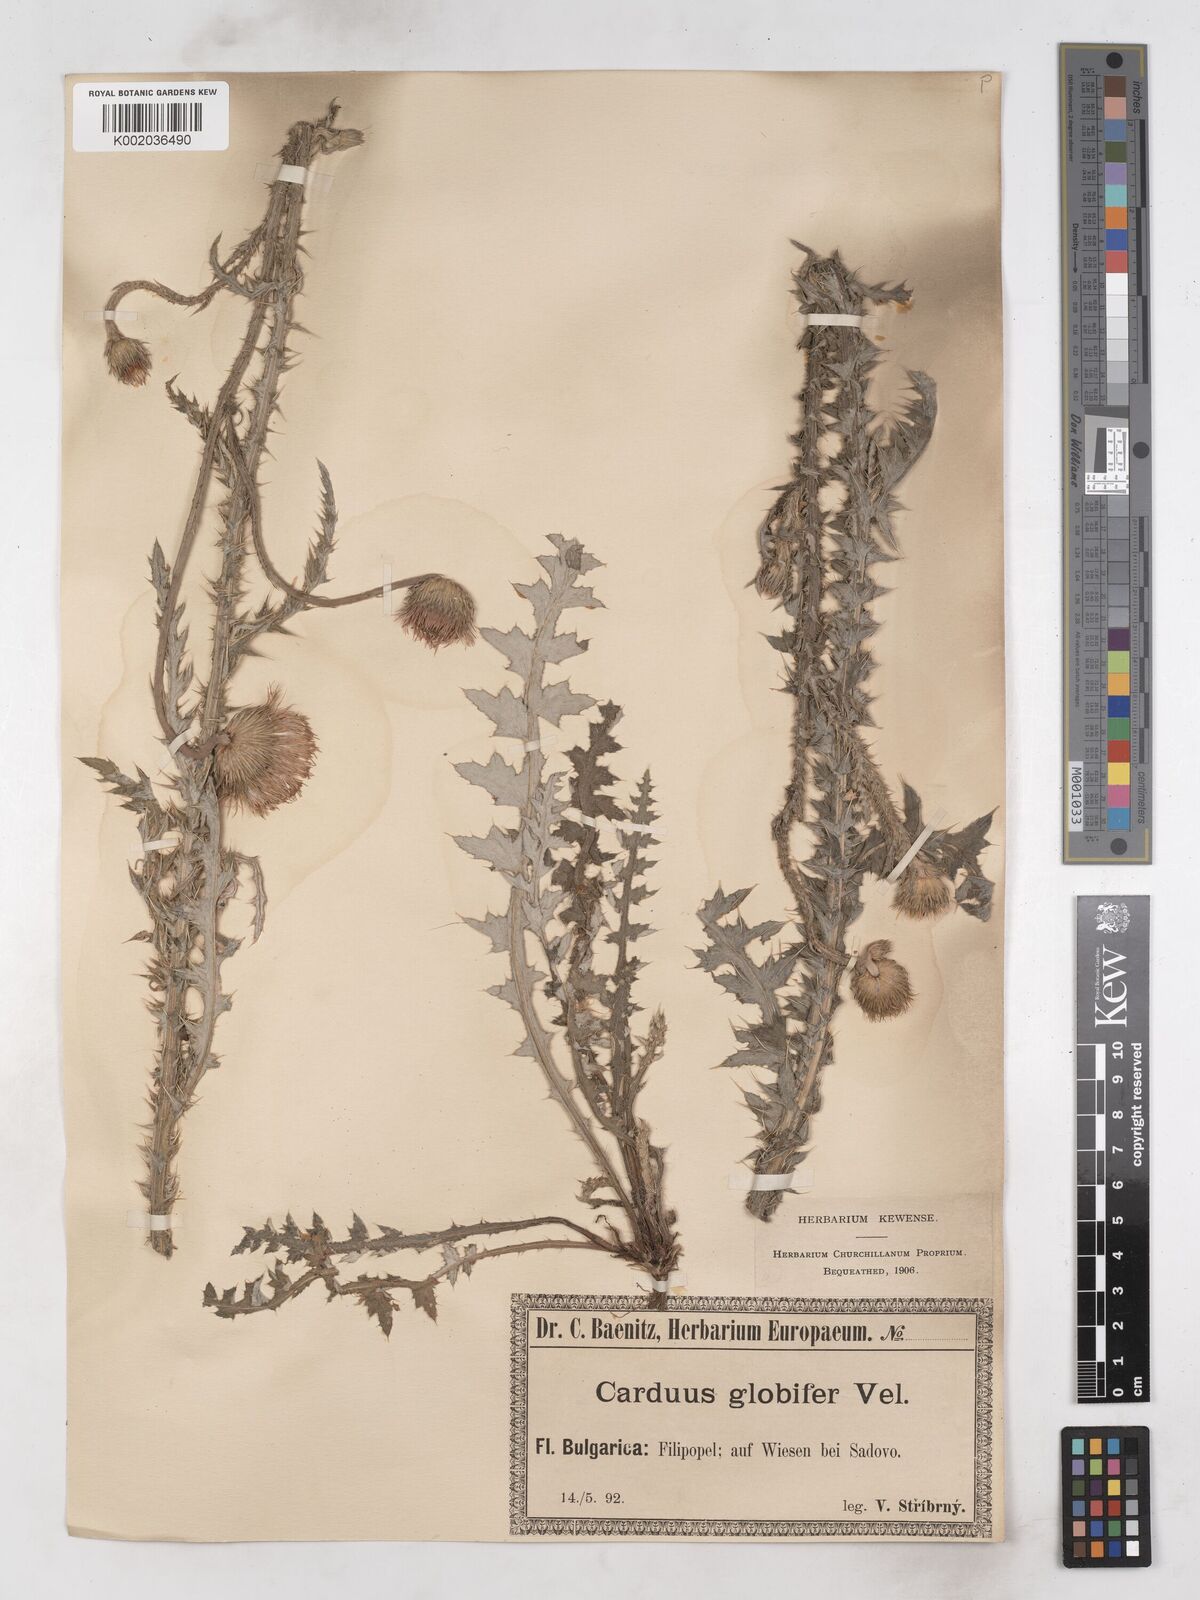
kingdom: Plantae
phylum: Tracheophyta
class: Magnoliopsida
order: Asterales
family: Asteraceae
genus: Carduus
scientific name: Carduus candicans
